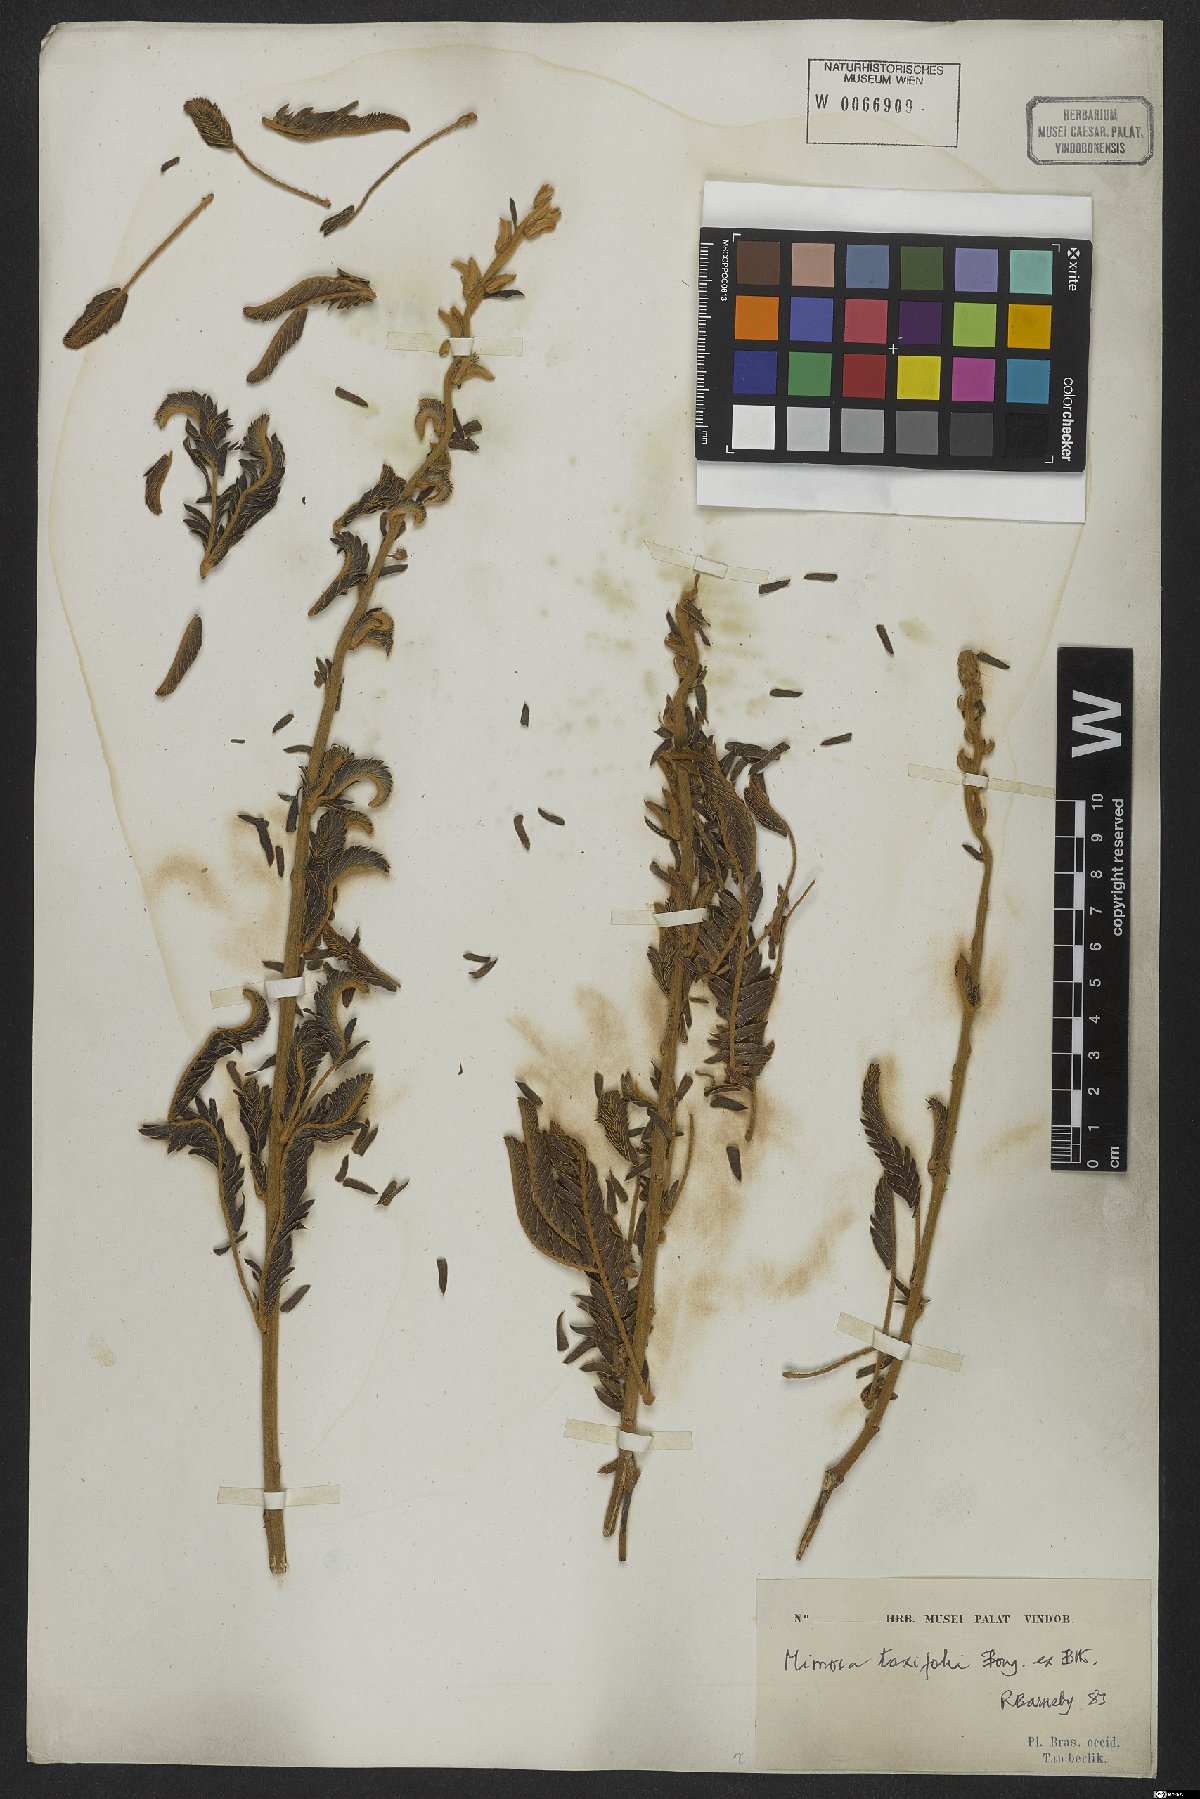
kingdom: Plantae
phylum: Tracheophyta
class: Magnoliopsida
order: Fabales
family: Fabaceae
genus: Mimosa
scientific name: Mimosa polycephala
